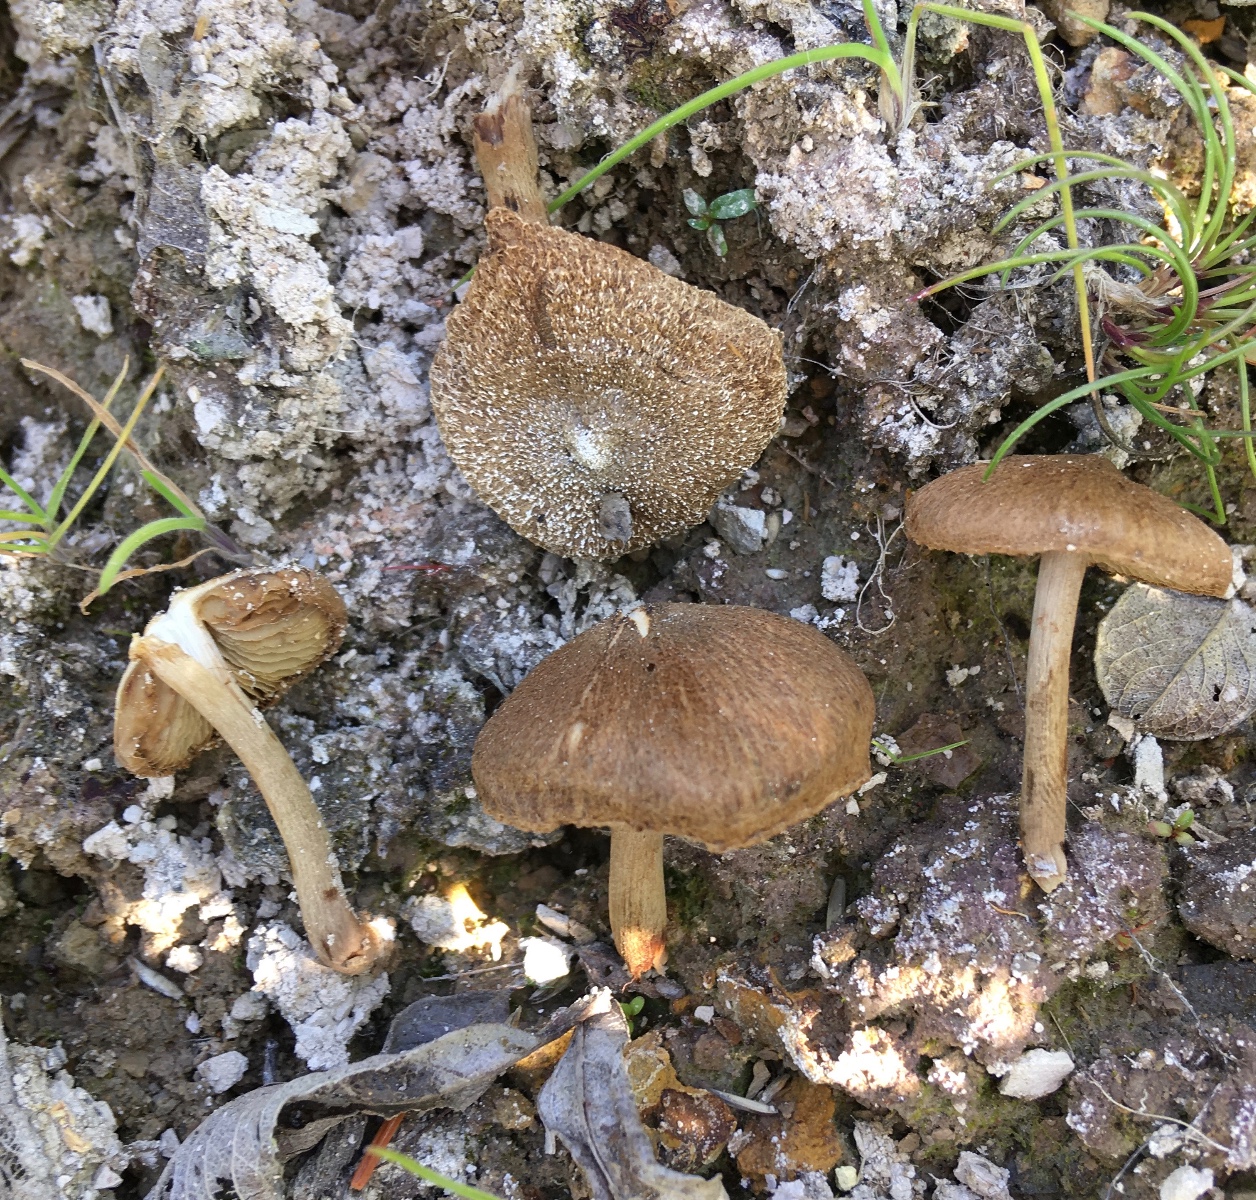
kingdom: Fungi
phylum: Basidiomycota
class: Agaricomycetes
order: Agaricales
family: Inocybaceae
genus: Inocybe
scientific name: Inocybe lacera
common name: laset trævlhat
